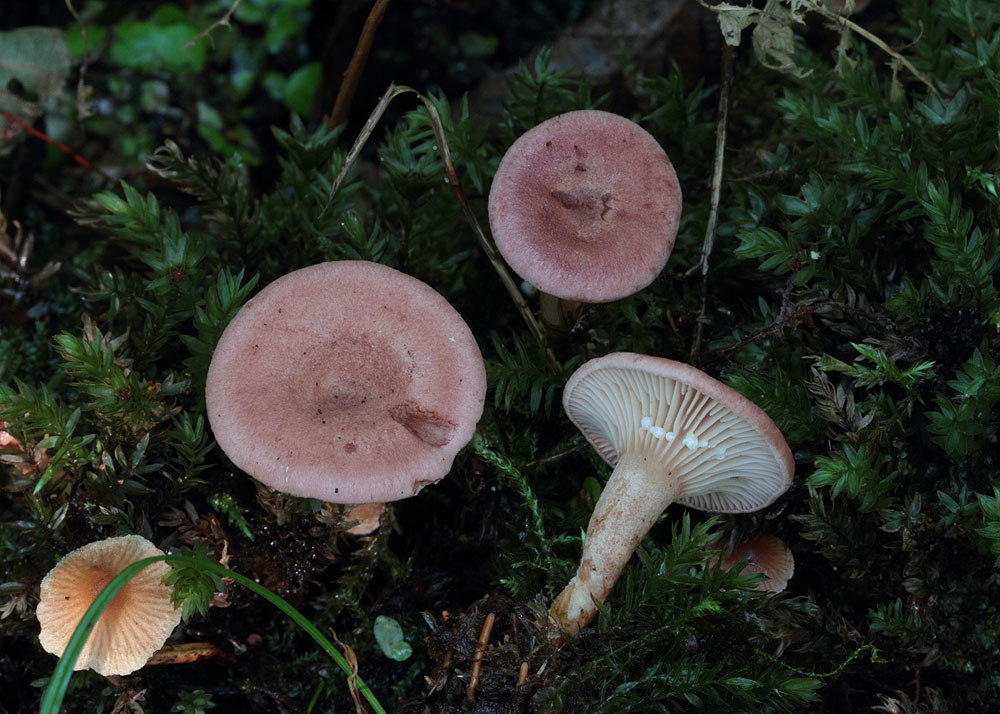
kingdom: Fungi
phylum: Basidiomycota
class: Agaricomycetes
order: Russulales
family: Russulaceae
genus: Lactarius
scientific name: Lactarius lilacinus
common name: lilla mælkehat
